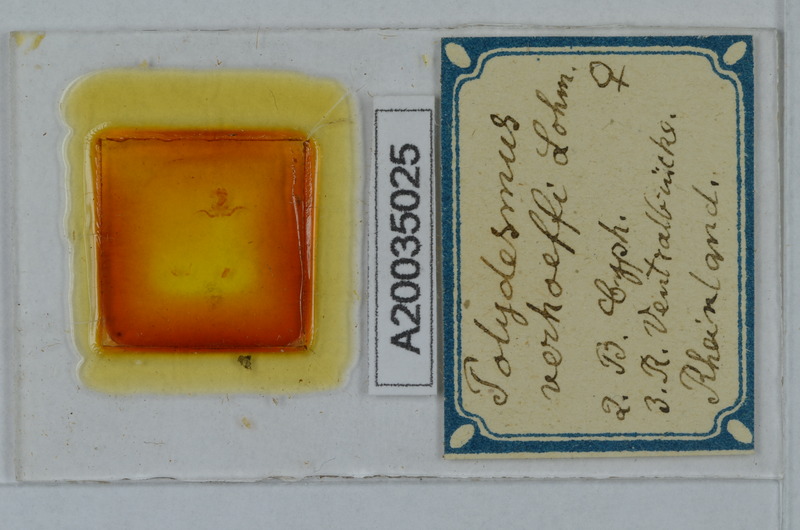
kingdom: Animalia
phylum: Arthropoda
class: Diplopoda
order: Polydesmida
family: Polydesmidae
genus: Polydesmus
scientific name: Polydesmus angustus
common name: Flat millipede
